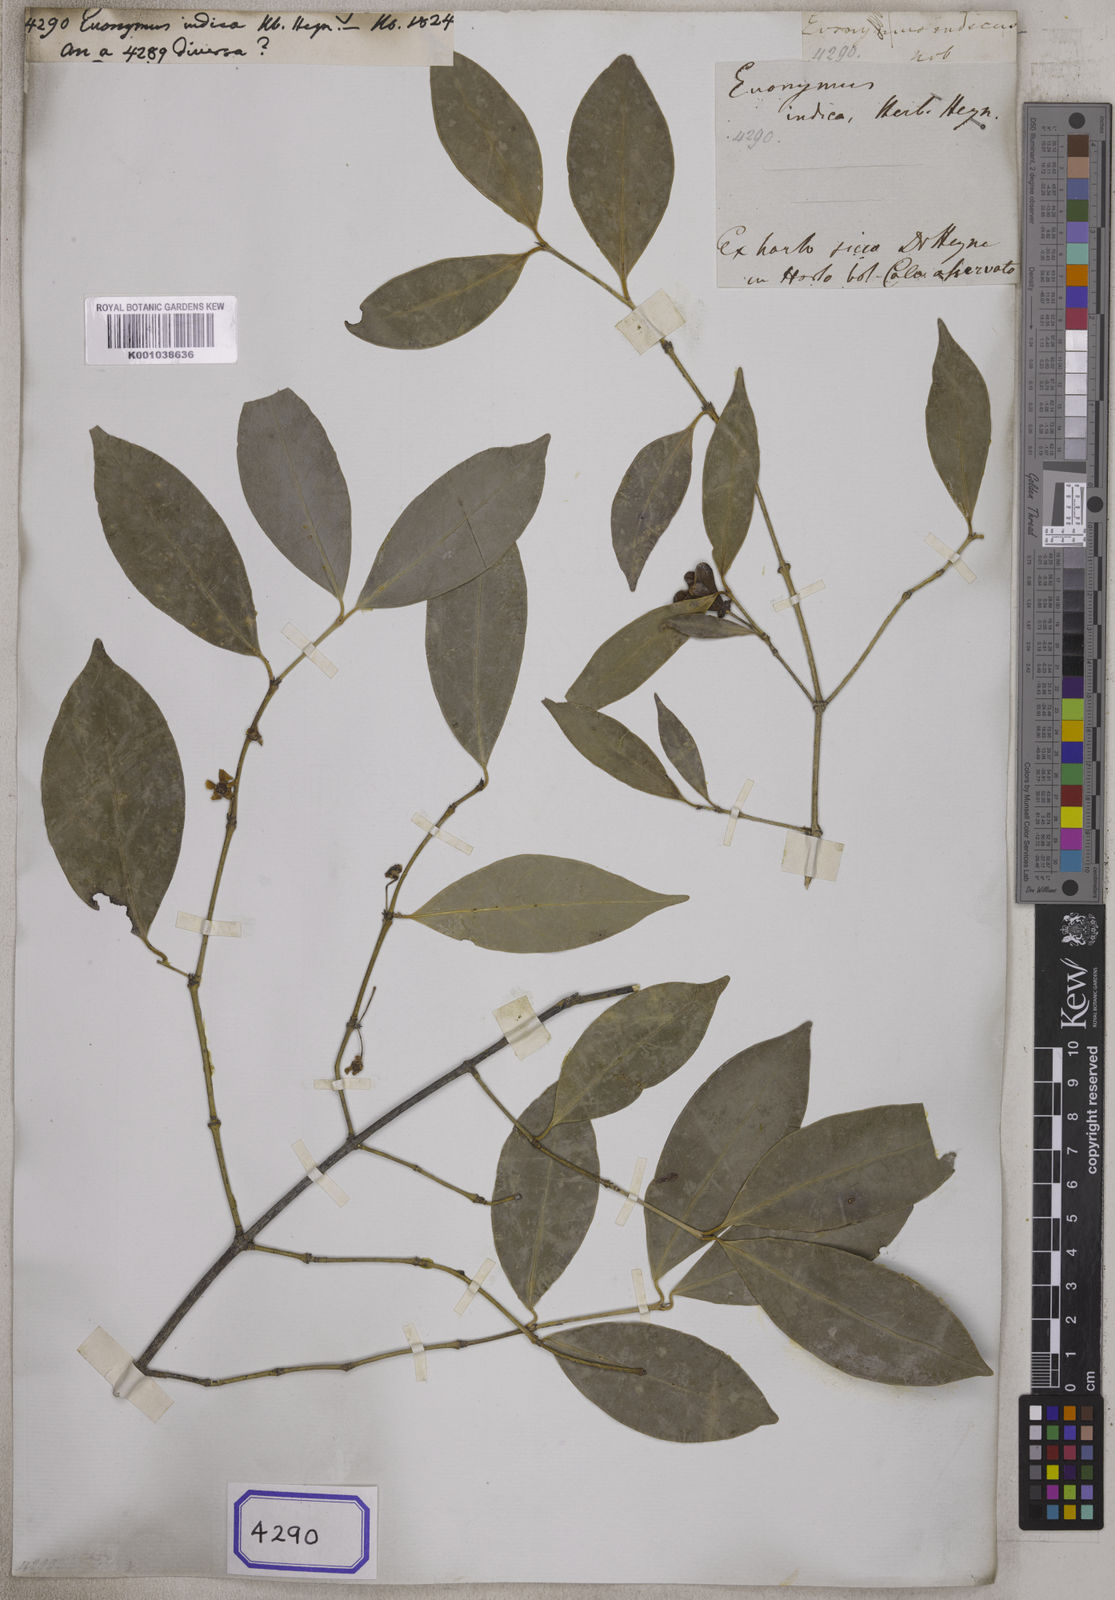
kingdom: Plantae
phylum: Tracheophyta
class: Magnoliopsida
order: Celastrales
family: Celastraceae
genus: Euonymus
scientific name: Euonymus
